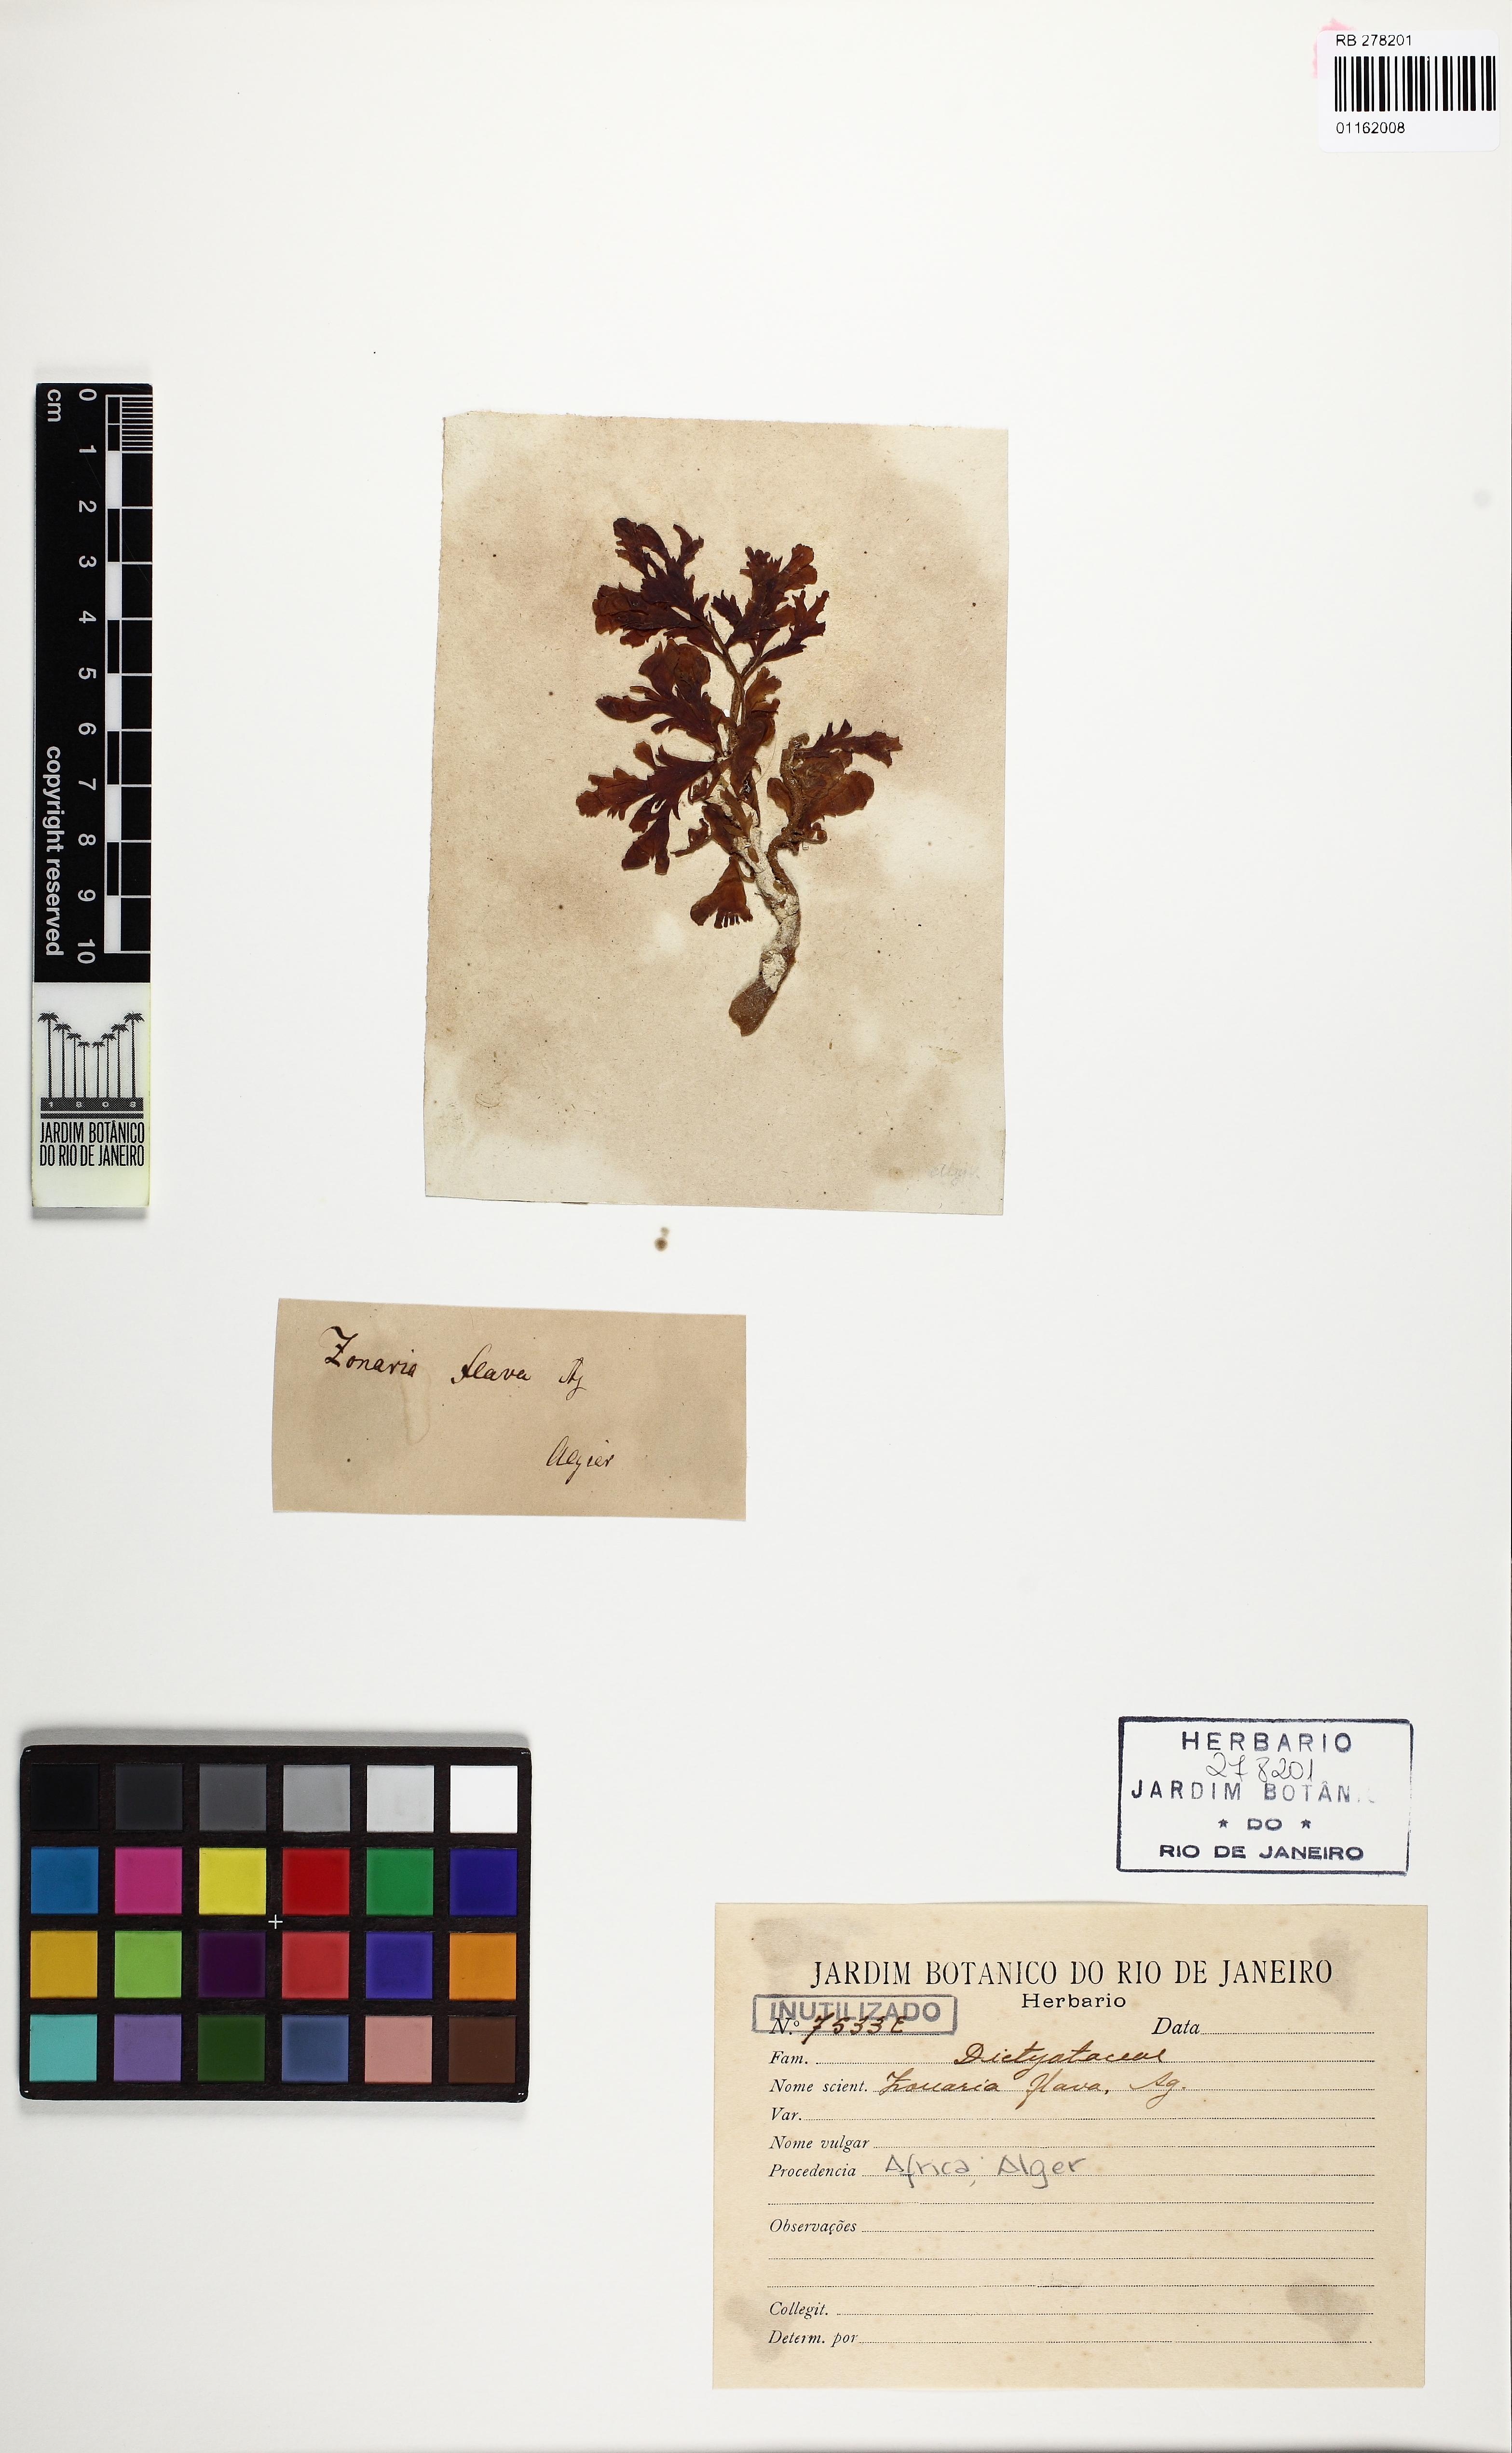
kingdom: Chromista
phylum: Ochrophyta
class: Phaeophyceae
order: Dictyotales
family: Dictyotaceae
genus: Zonaria
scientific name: Zonaria tournefortii
